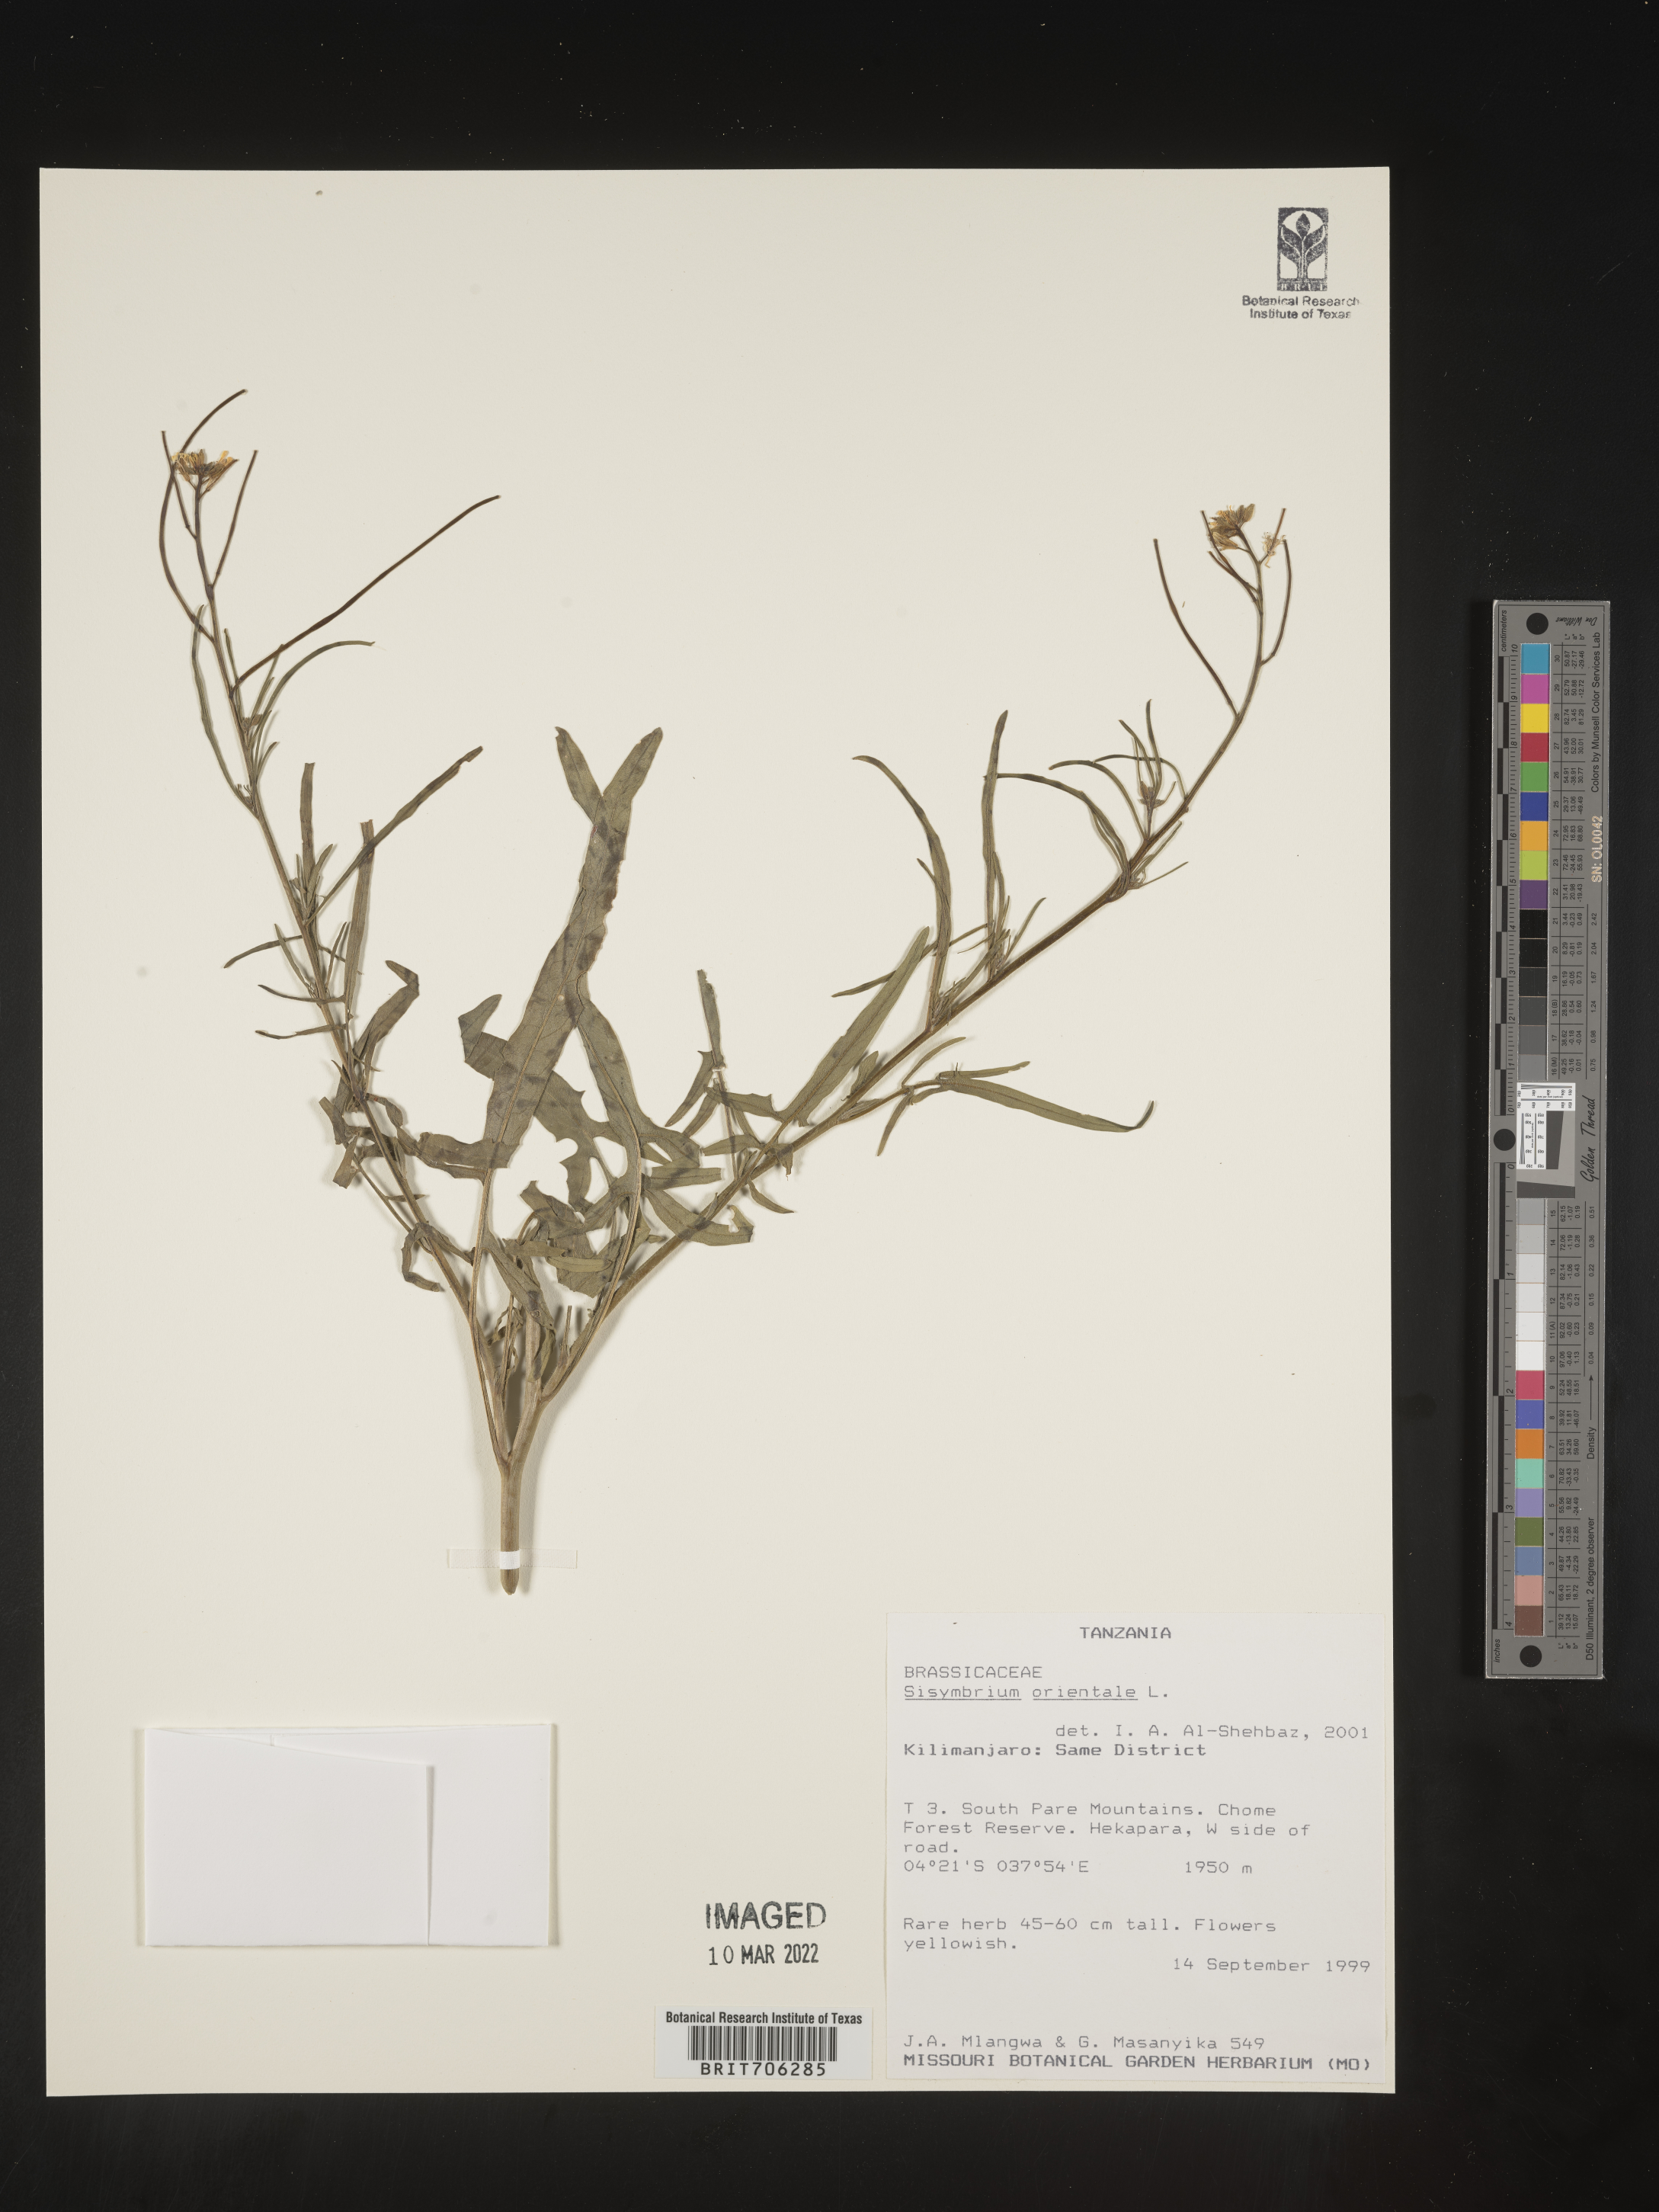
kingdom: Plantae
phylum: Tracheophyta
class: Magnoliopsida
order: Brassicales
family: Brassicaceae
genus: Sisymbrium
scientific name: Sisymbrium
